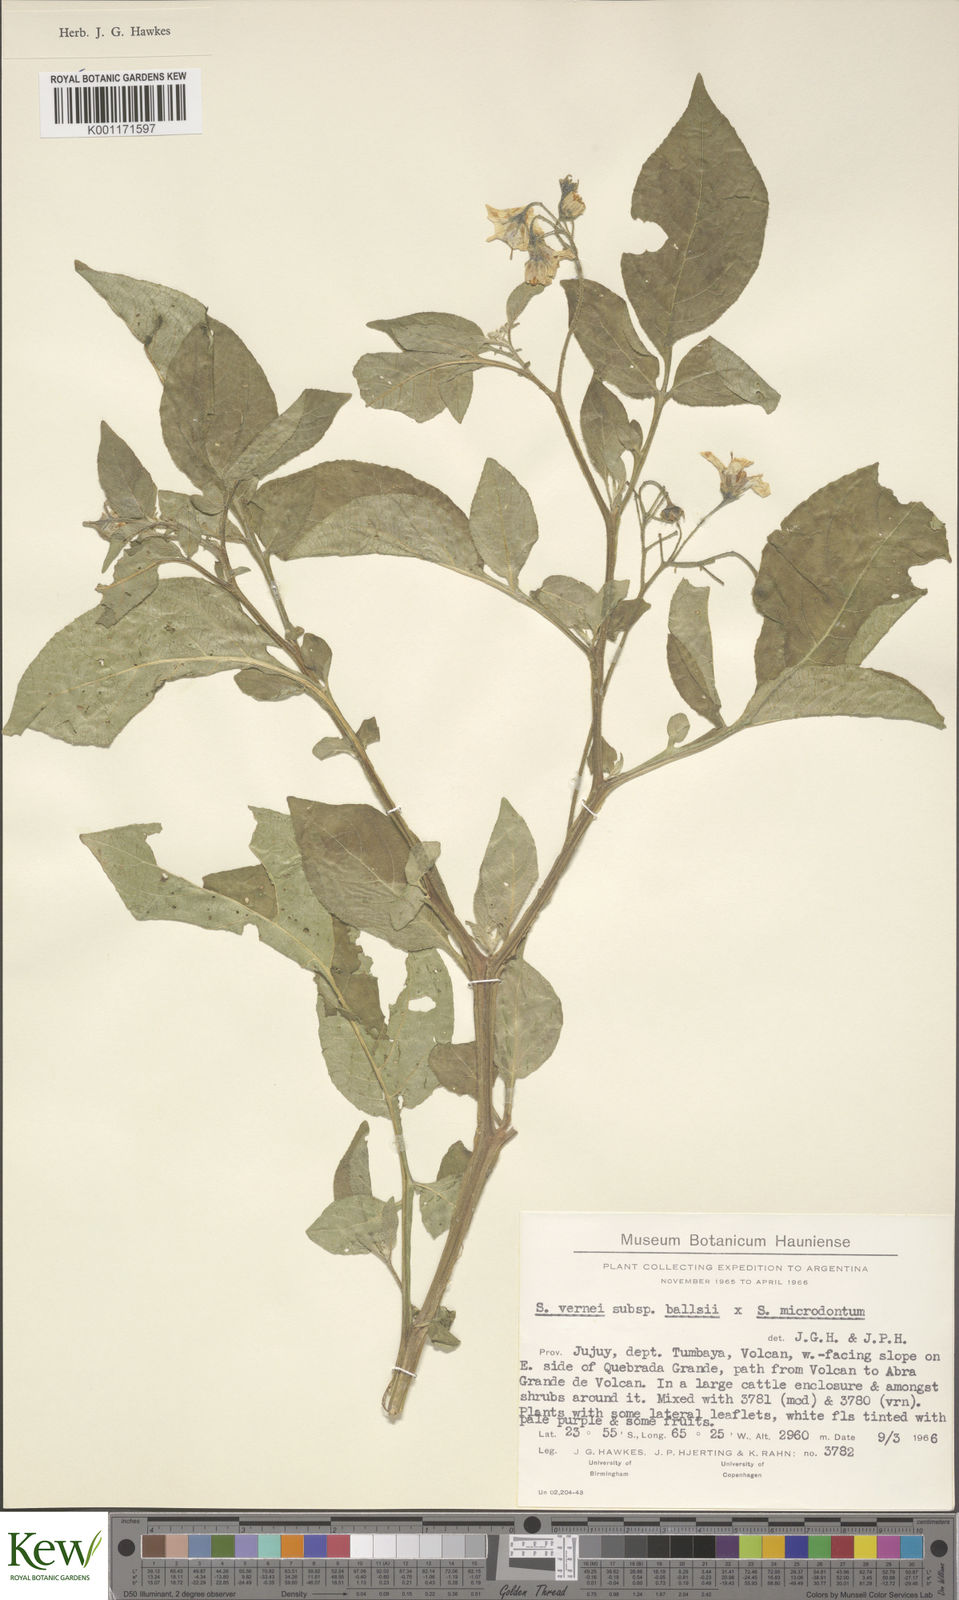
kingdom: Plantae
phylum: Tracheophyta
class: Magnoliopsida
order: Solanales
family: Solanaceae
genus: Solanum
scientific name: Solanum vernei
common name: Purple potato
